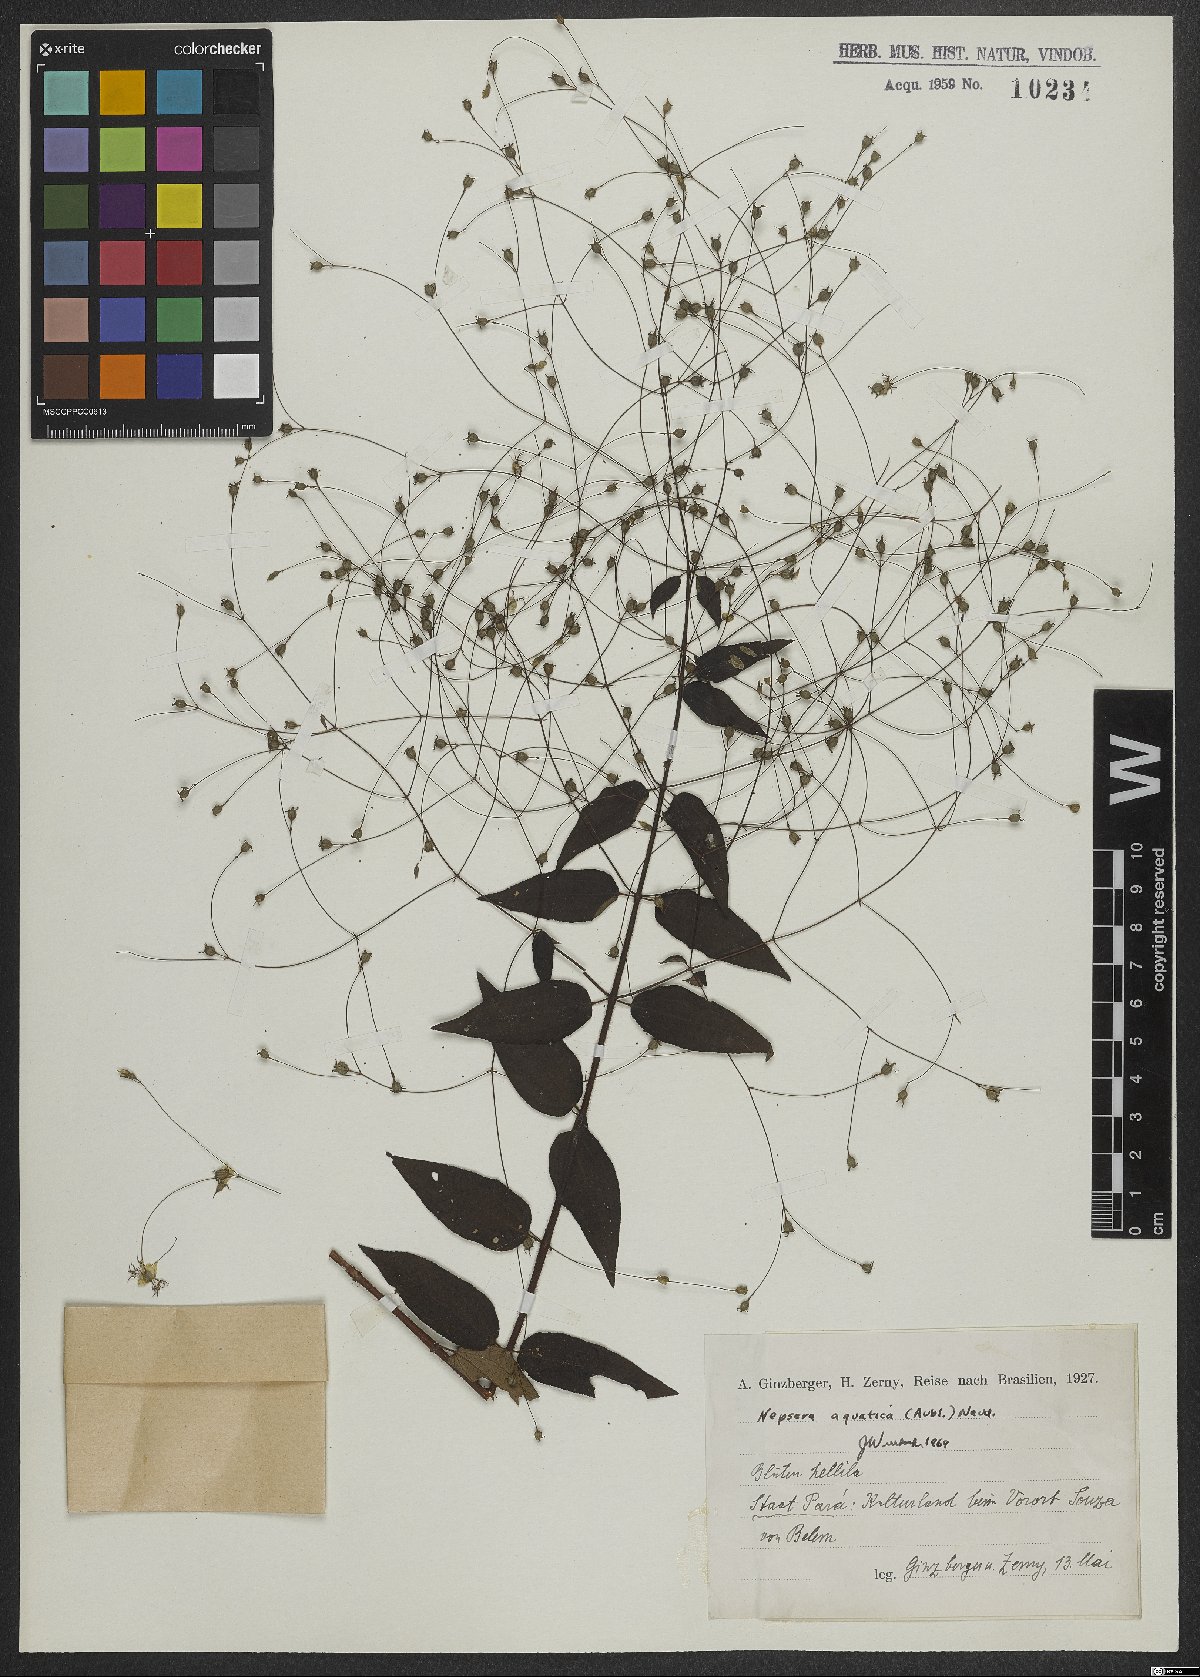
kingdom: Plantae
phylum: Tracheophyta
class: Magnoliopsida
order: Myrtales
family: Melastomataceae
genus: Nepsera
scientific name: Nepsera aquatica
